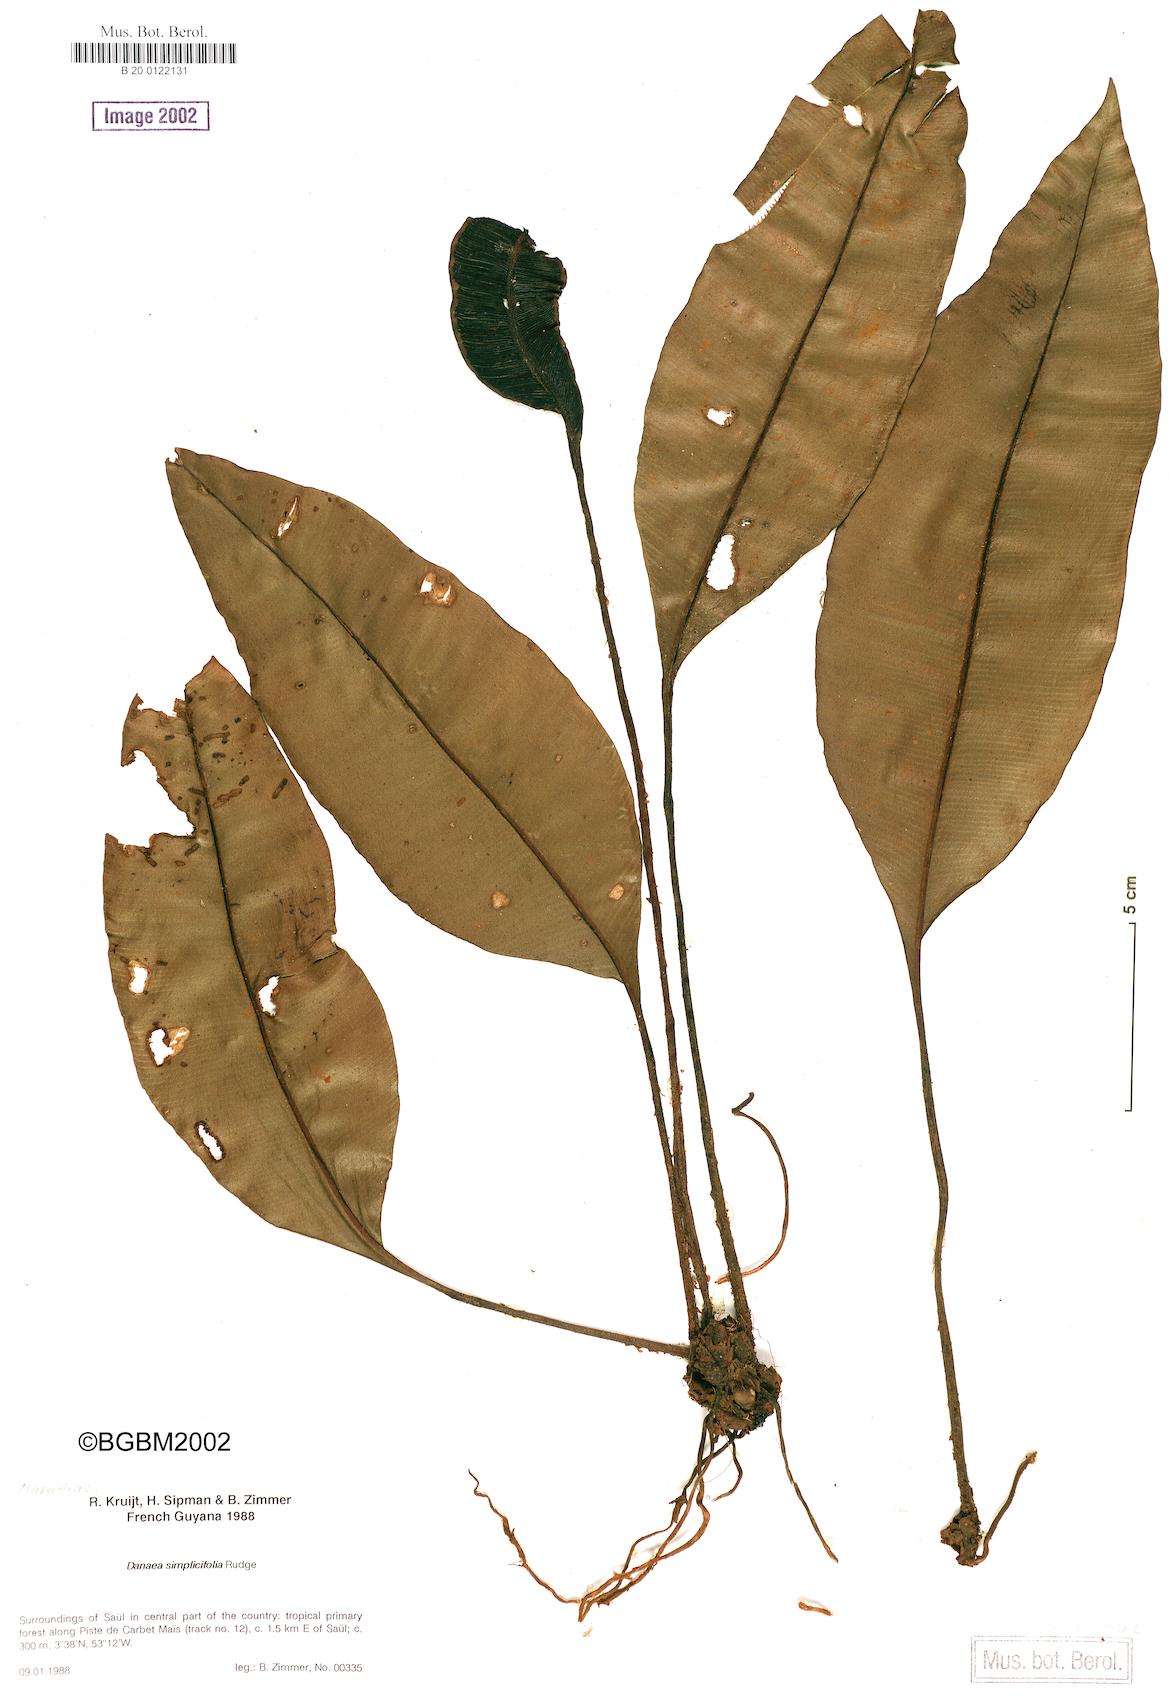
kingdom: Plantae
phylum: Tracheophyta
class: Polypodiopsida
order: Marattiales
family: Marattiaceae
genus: Danaea
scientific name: Danaea simplicifolia
